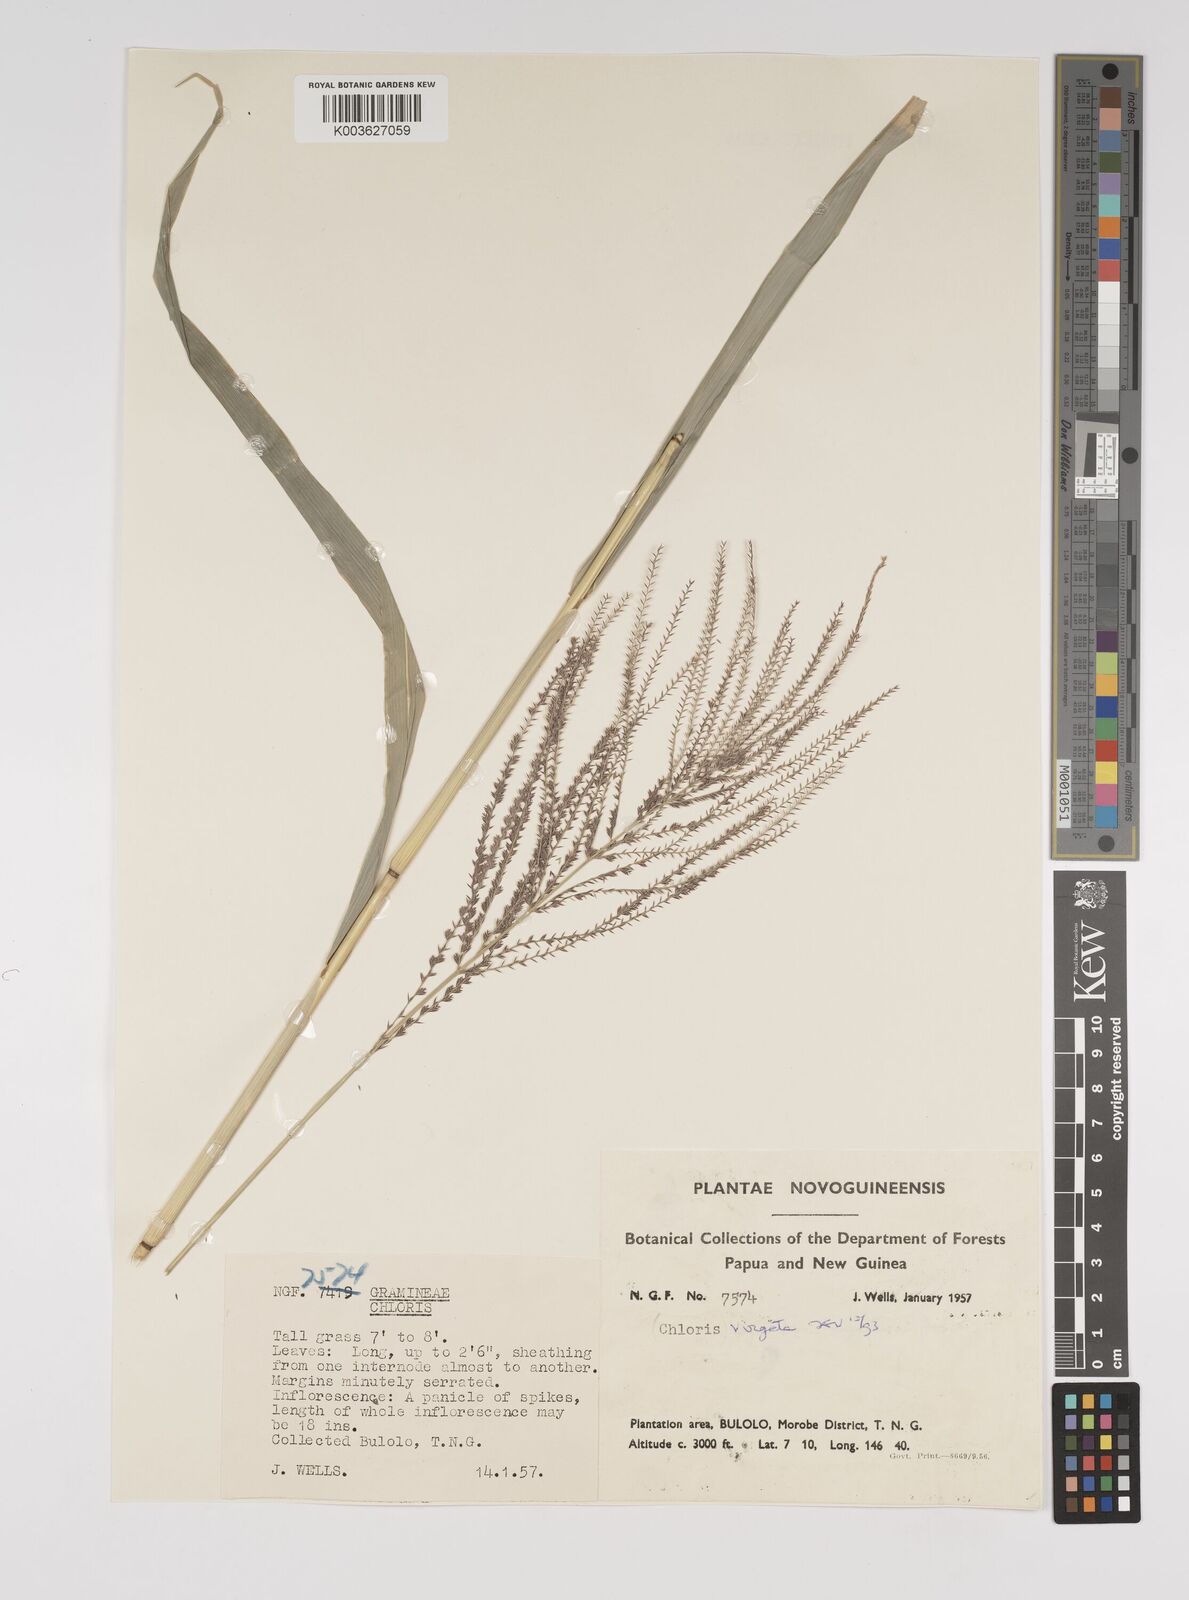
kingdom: Plantae
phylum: Tracheophyta
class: Liliopsida
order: Poales
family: Poaceae
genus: Leptochloa
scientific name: Leptochloa
